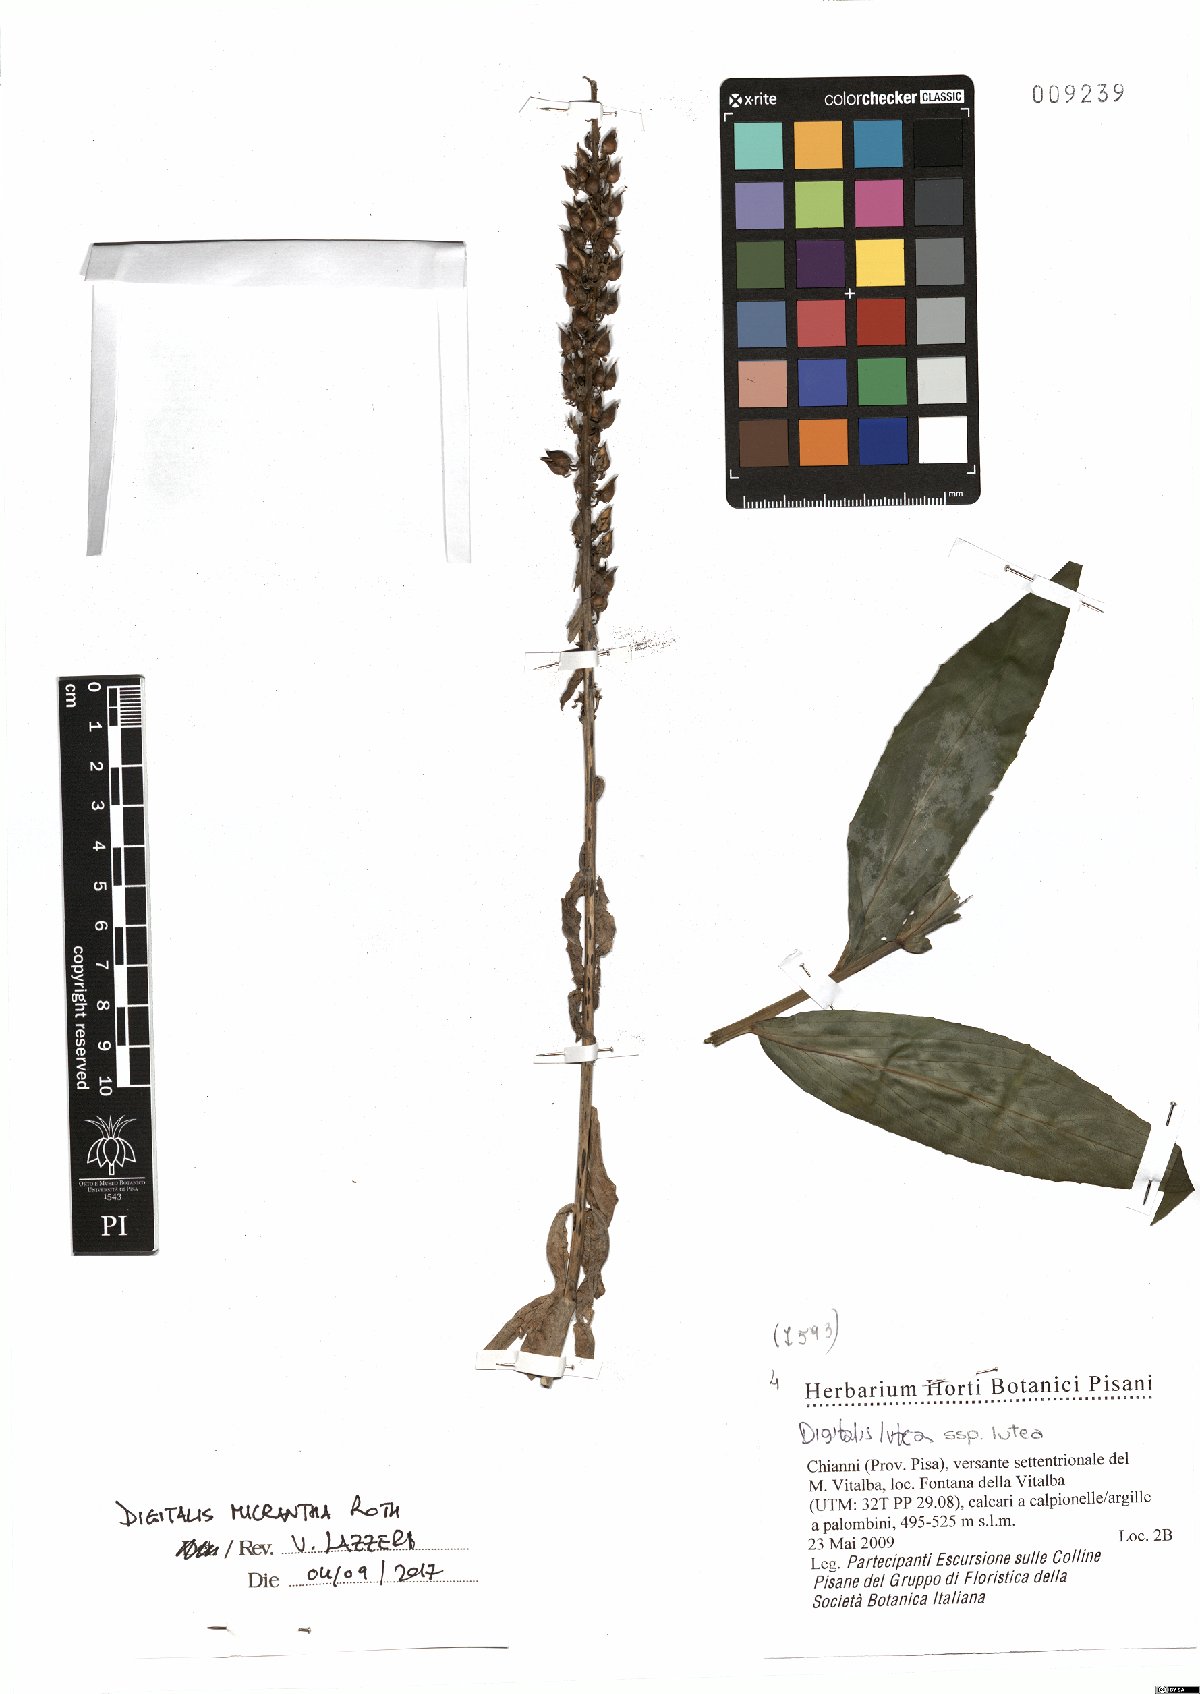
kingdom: Plantae
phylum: Tracheophyta
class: Magnoliopsida
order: Lamiales
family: Plantaginaceae
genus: Digitalis
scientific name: Digitalis lutea
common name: Straw foxglove
